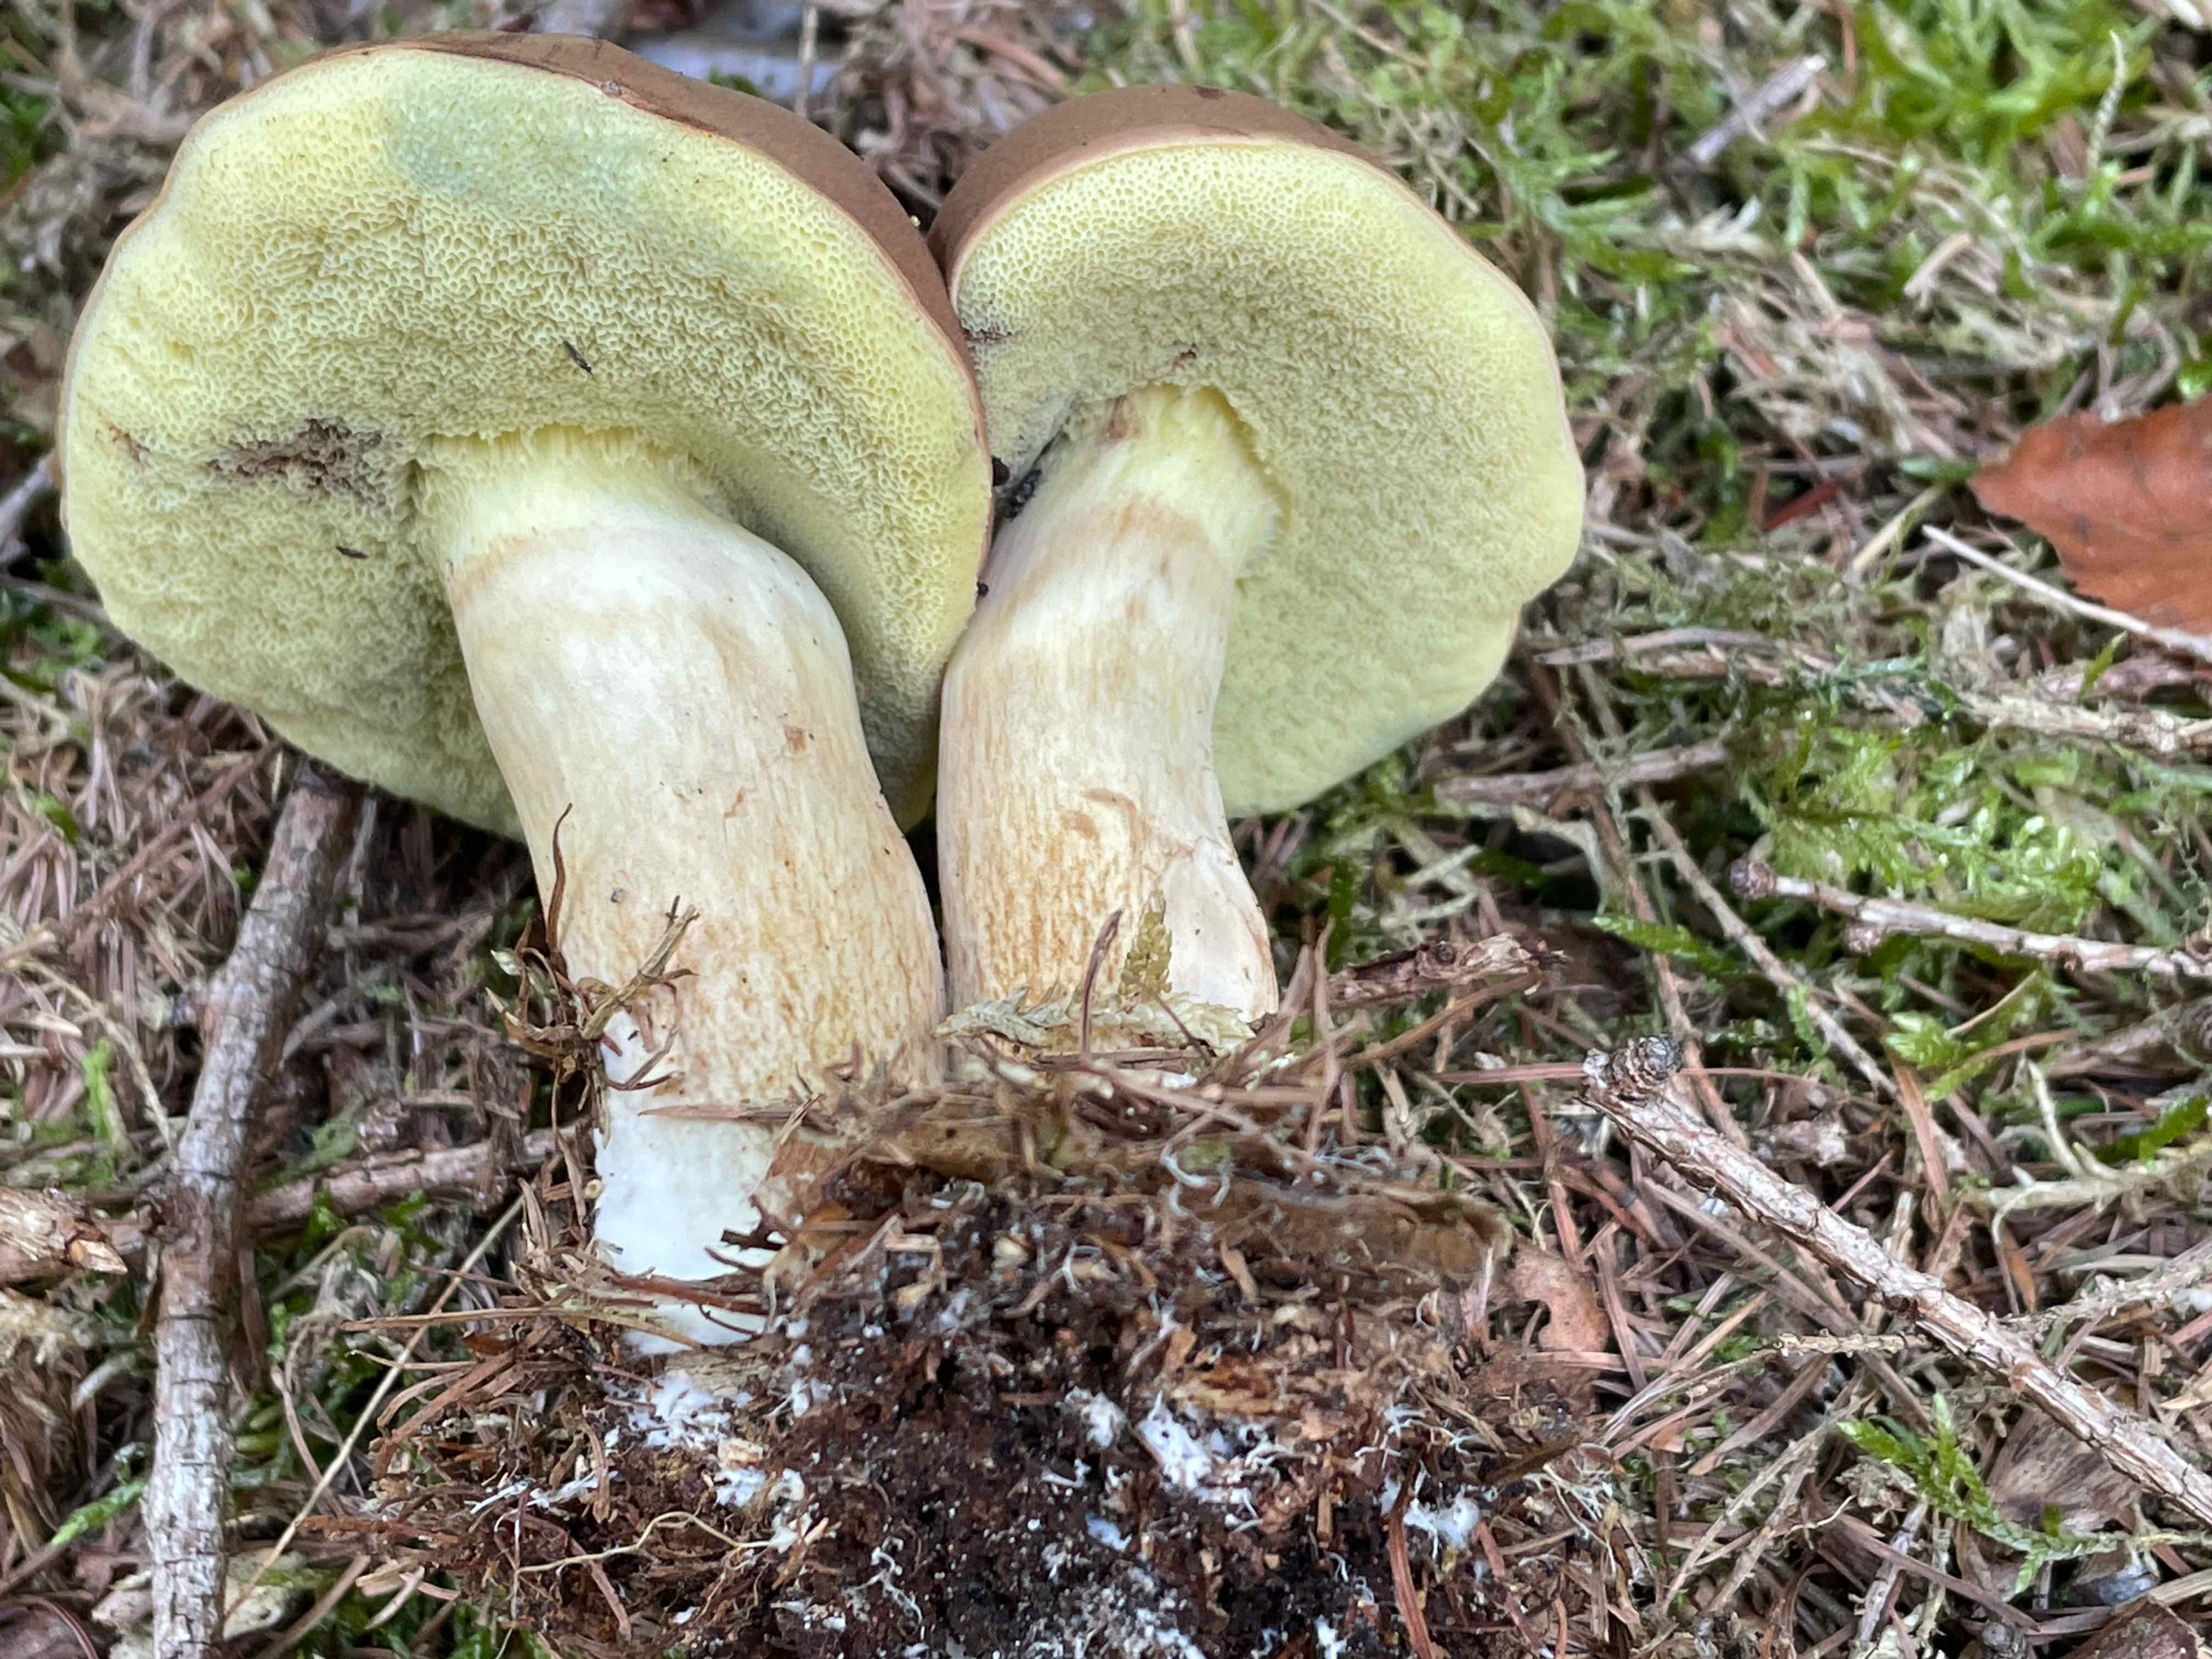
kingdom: Fungi
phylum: Basidiomycota
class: Agaricomycetes
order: Boletales
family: Boletaceae
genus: Imleria
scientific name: Imleria badia
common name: brunstokket rørhat
